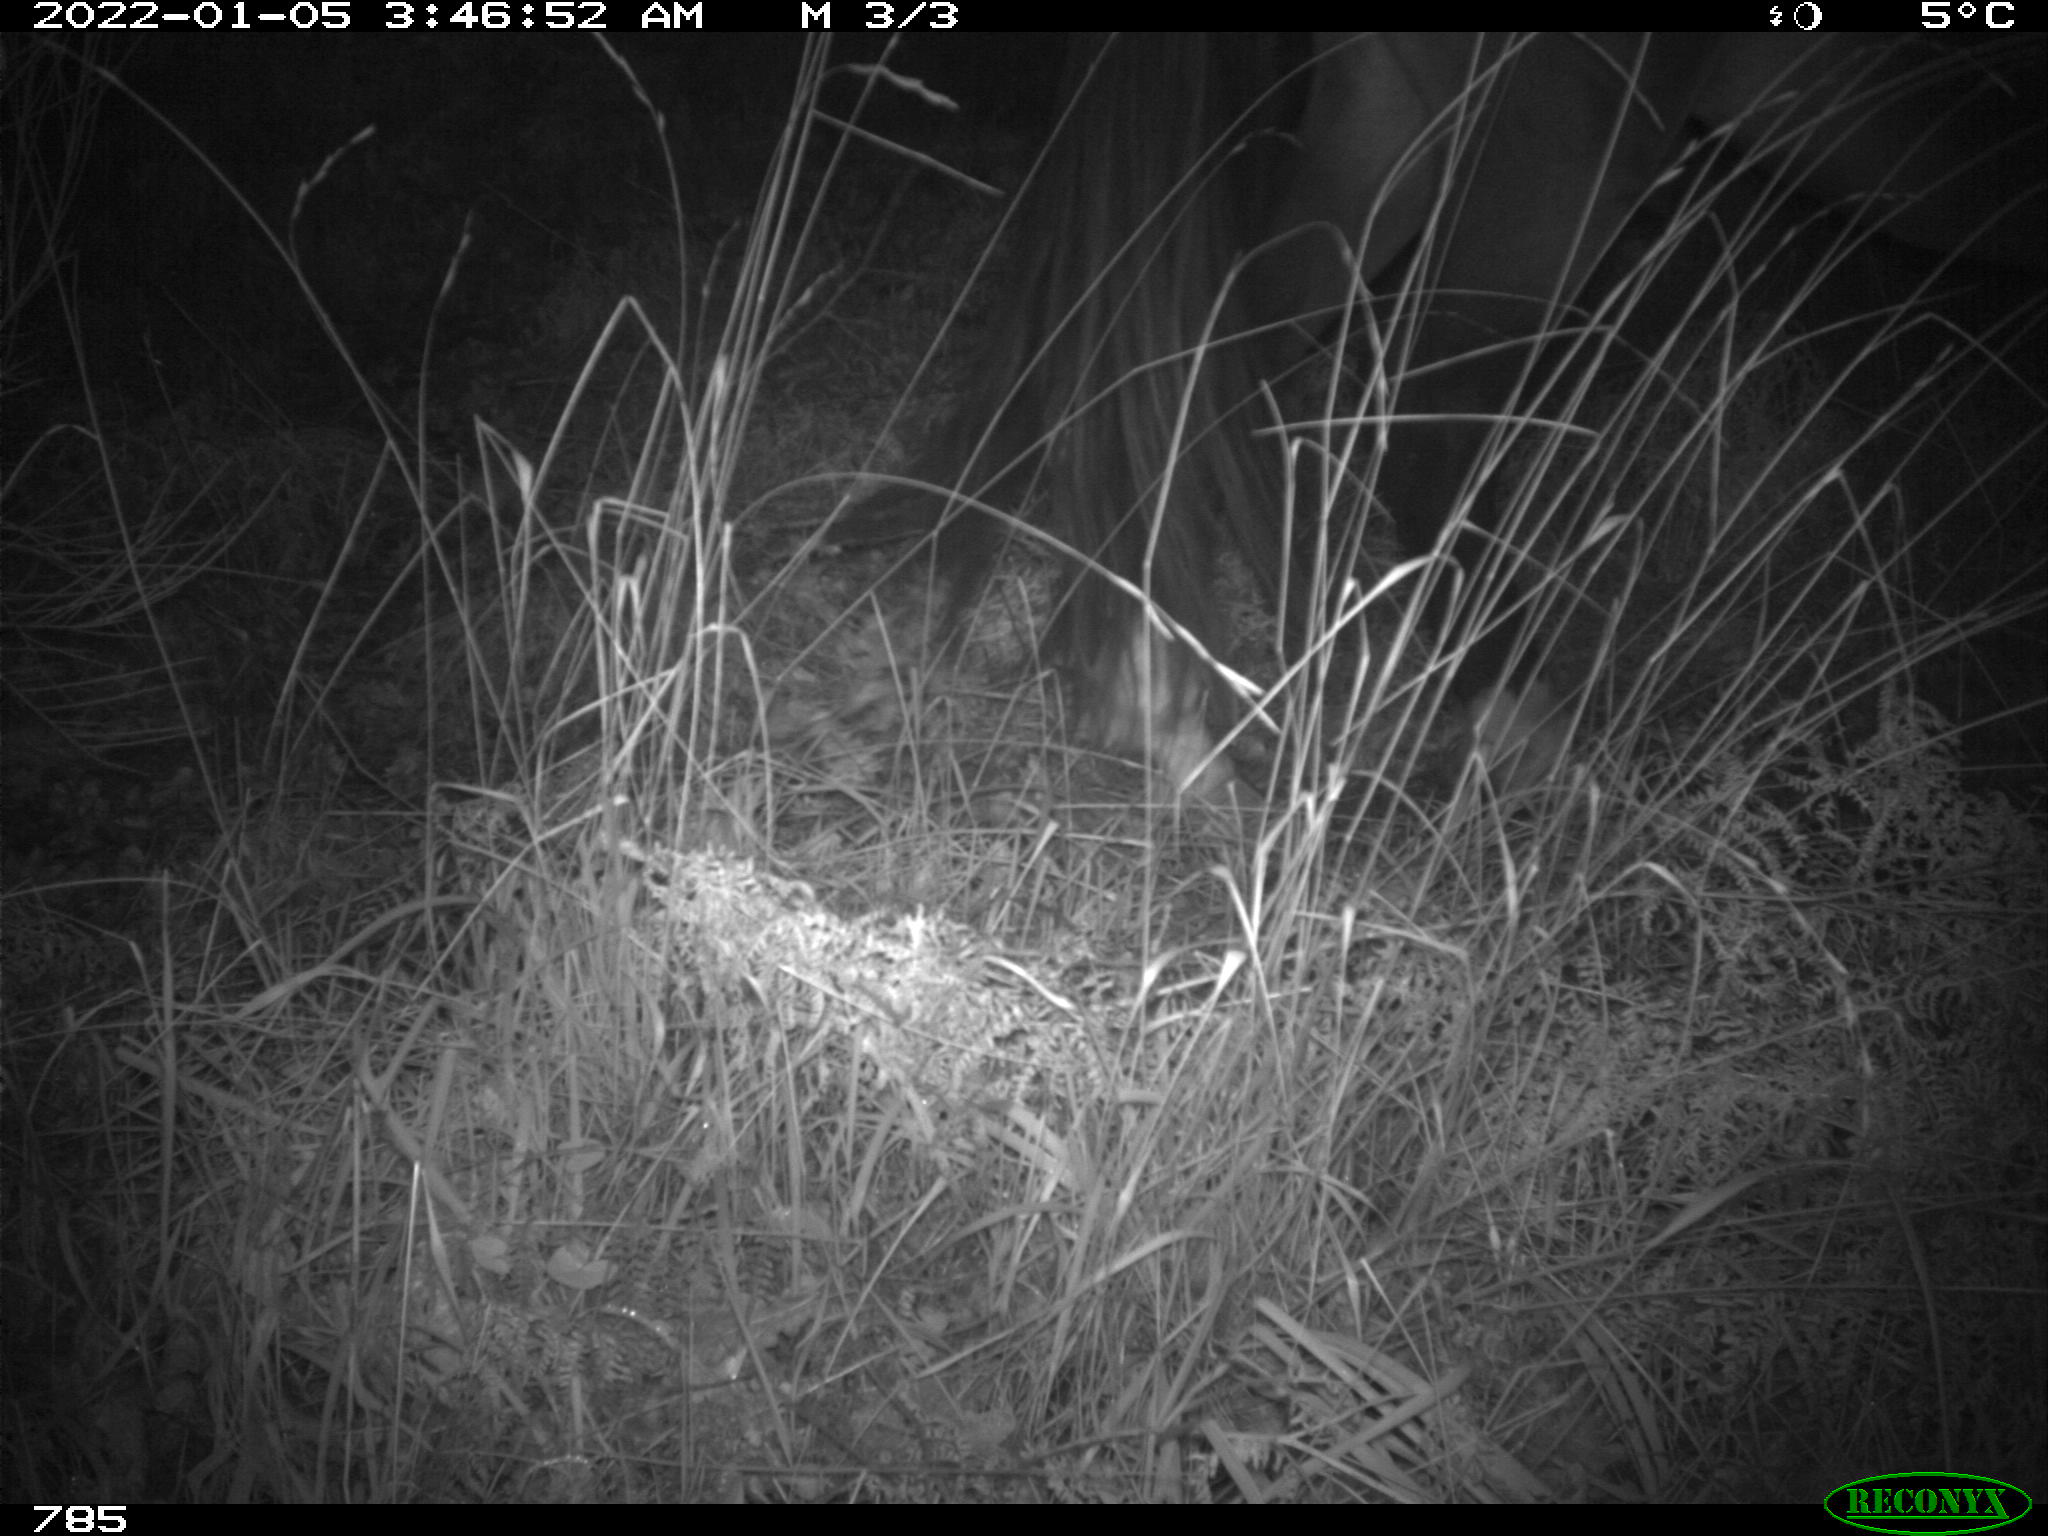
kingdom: Animalia
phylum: Chordata
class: Mammalia
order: Perissodactyla
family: Equidae
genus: Equus
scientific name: Equus caballus
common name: Horse
